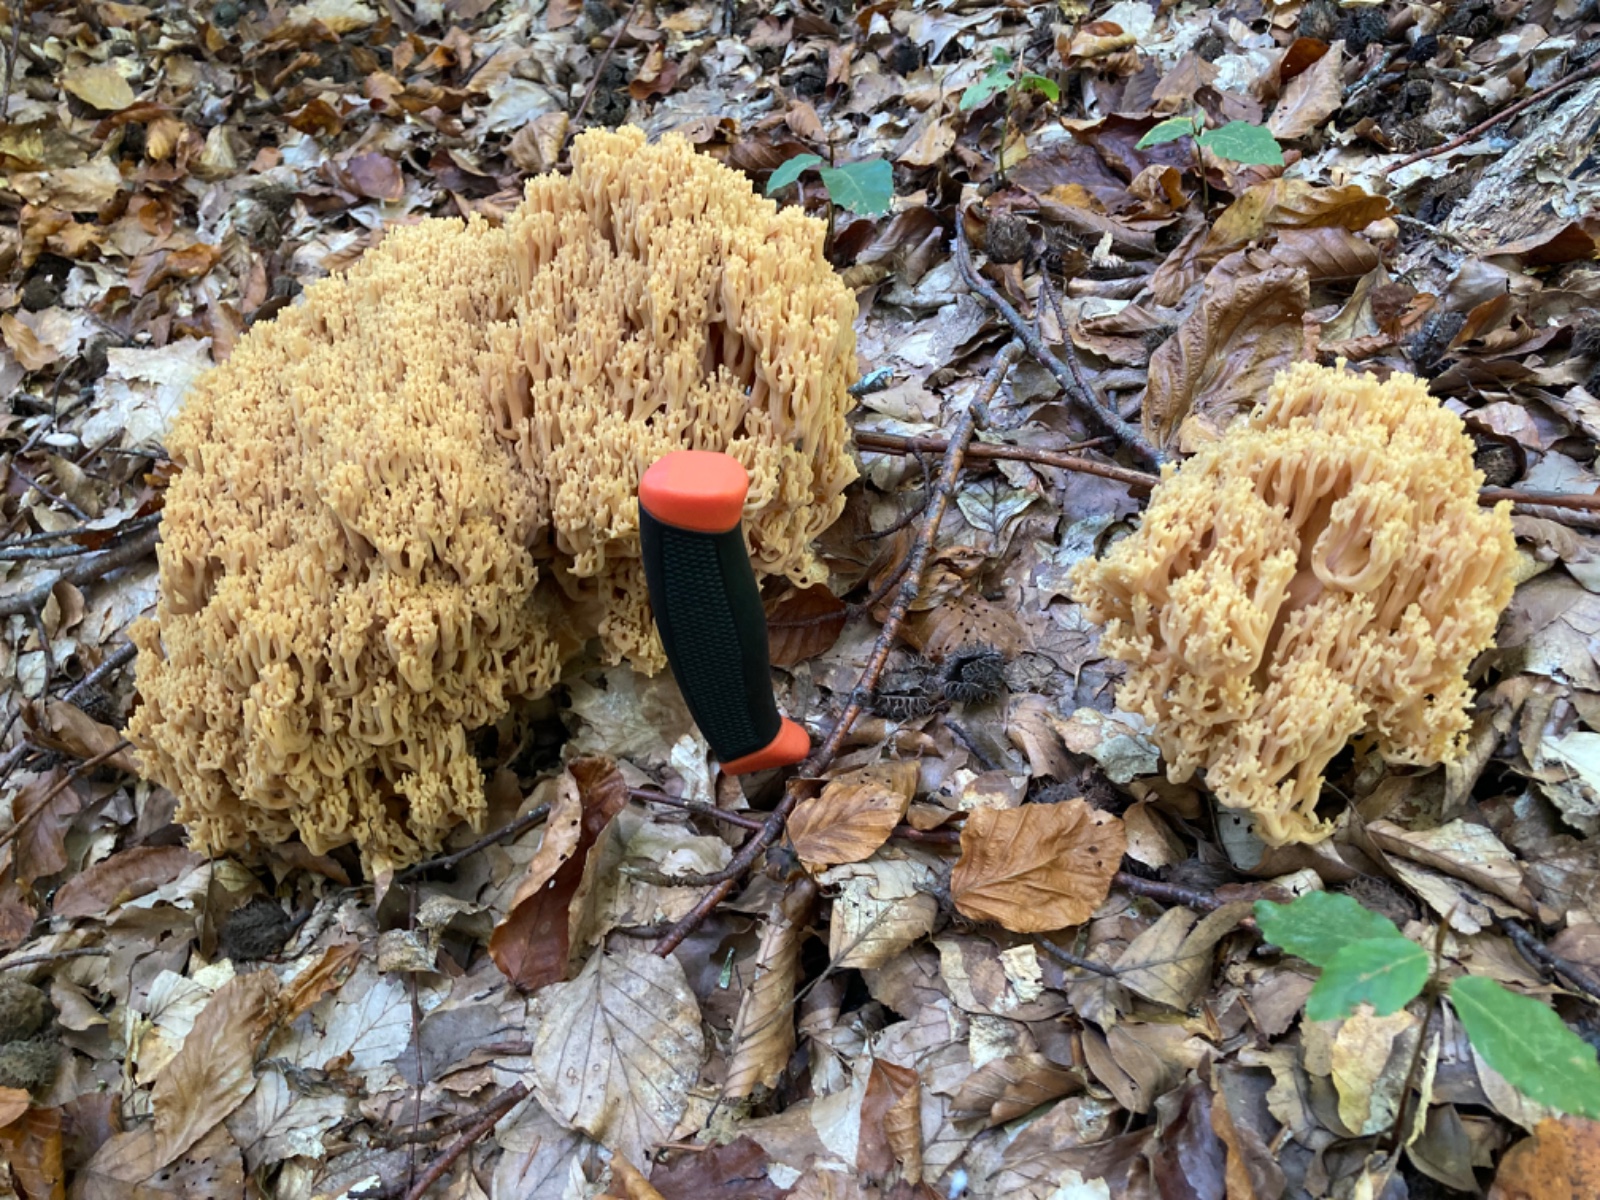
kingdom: Fungi
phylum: Basidiomycota
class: Agaricomycetes
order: Gomphales
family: Gomphaceae
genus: Ramaria
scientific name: Ramaria flavescens
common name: stor koralsvamp
